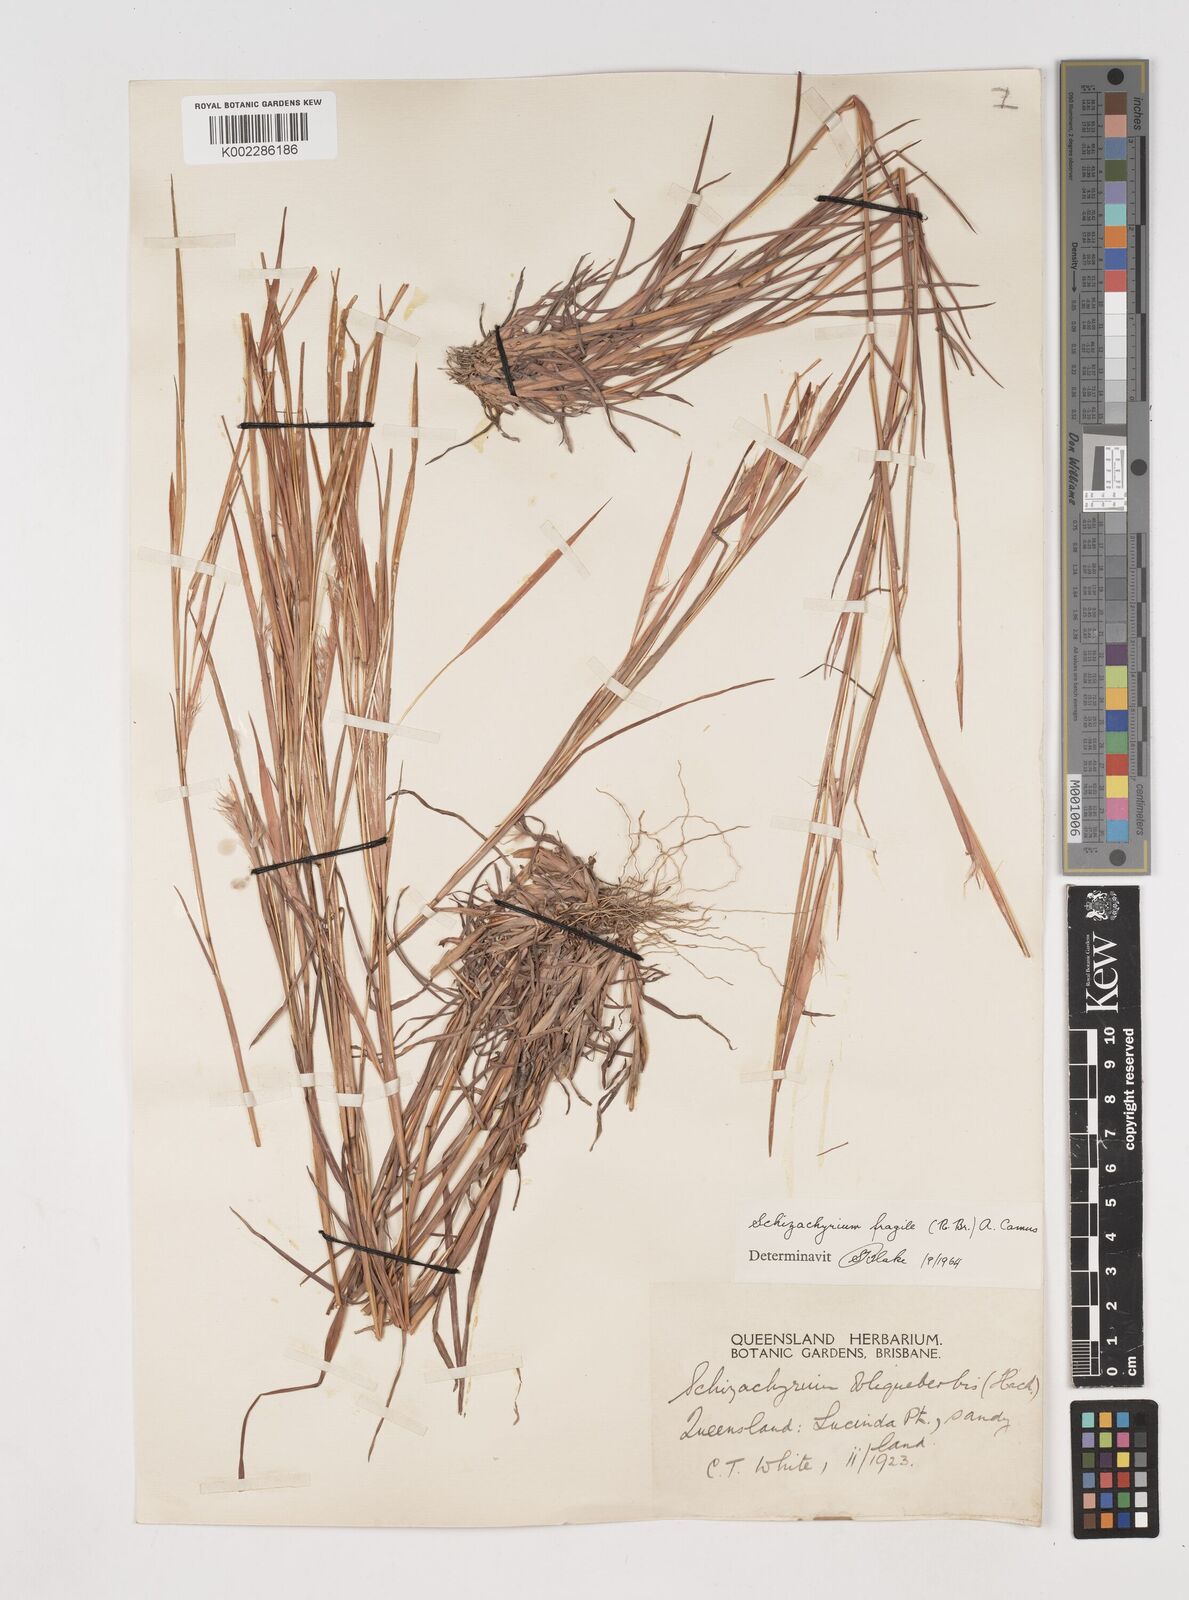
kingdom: Plantae
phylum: Tracheophyta
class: Liliopsida
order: Poales
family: Poaceae
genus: Schizachyrium
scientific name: Schizachyrium fragile
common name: Red spathe grass
